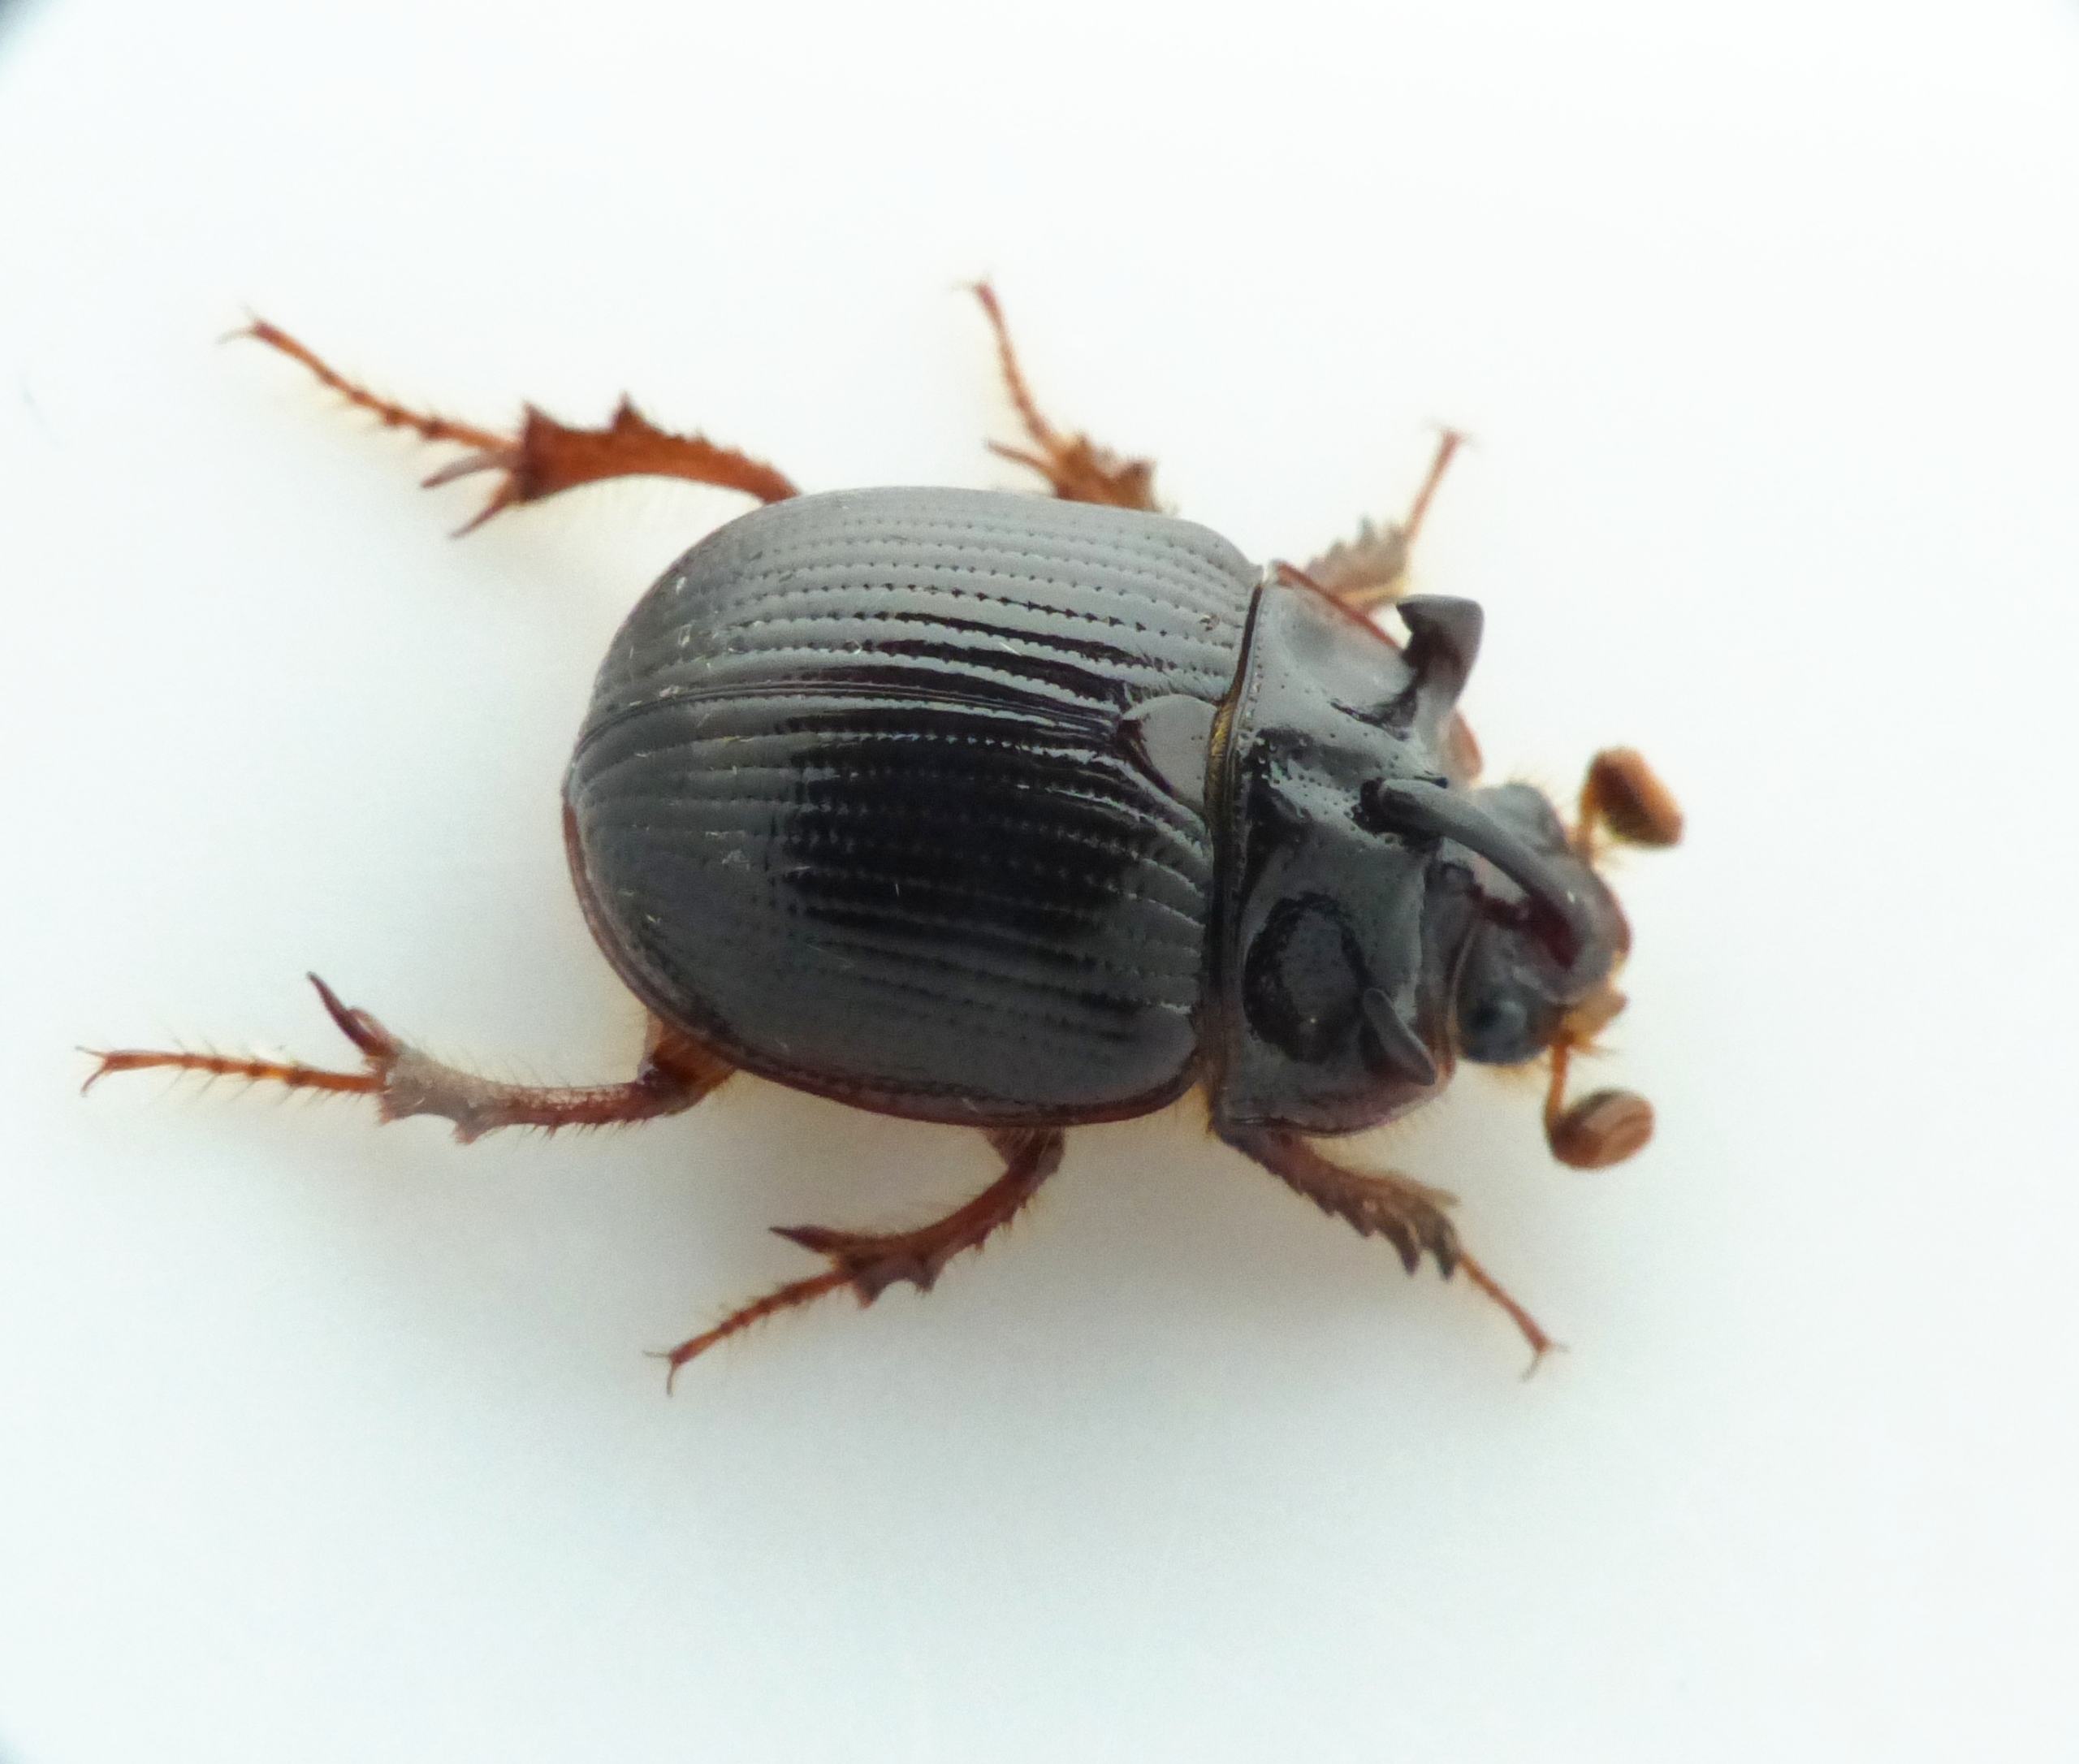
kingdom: Animalia
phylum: Arthropoda
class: Insecta
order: Coleoptera
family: Geotrupidae
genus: Odonteus
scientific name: Odonteus armiger
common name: Trøffeltorbist
